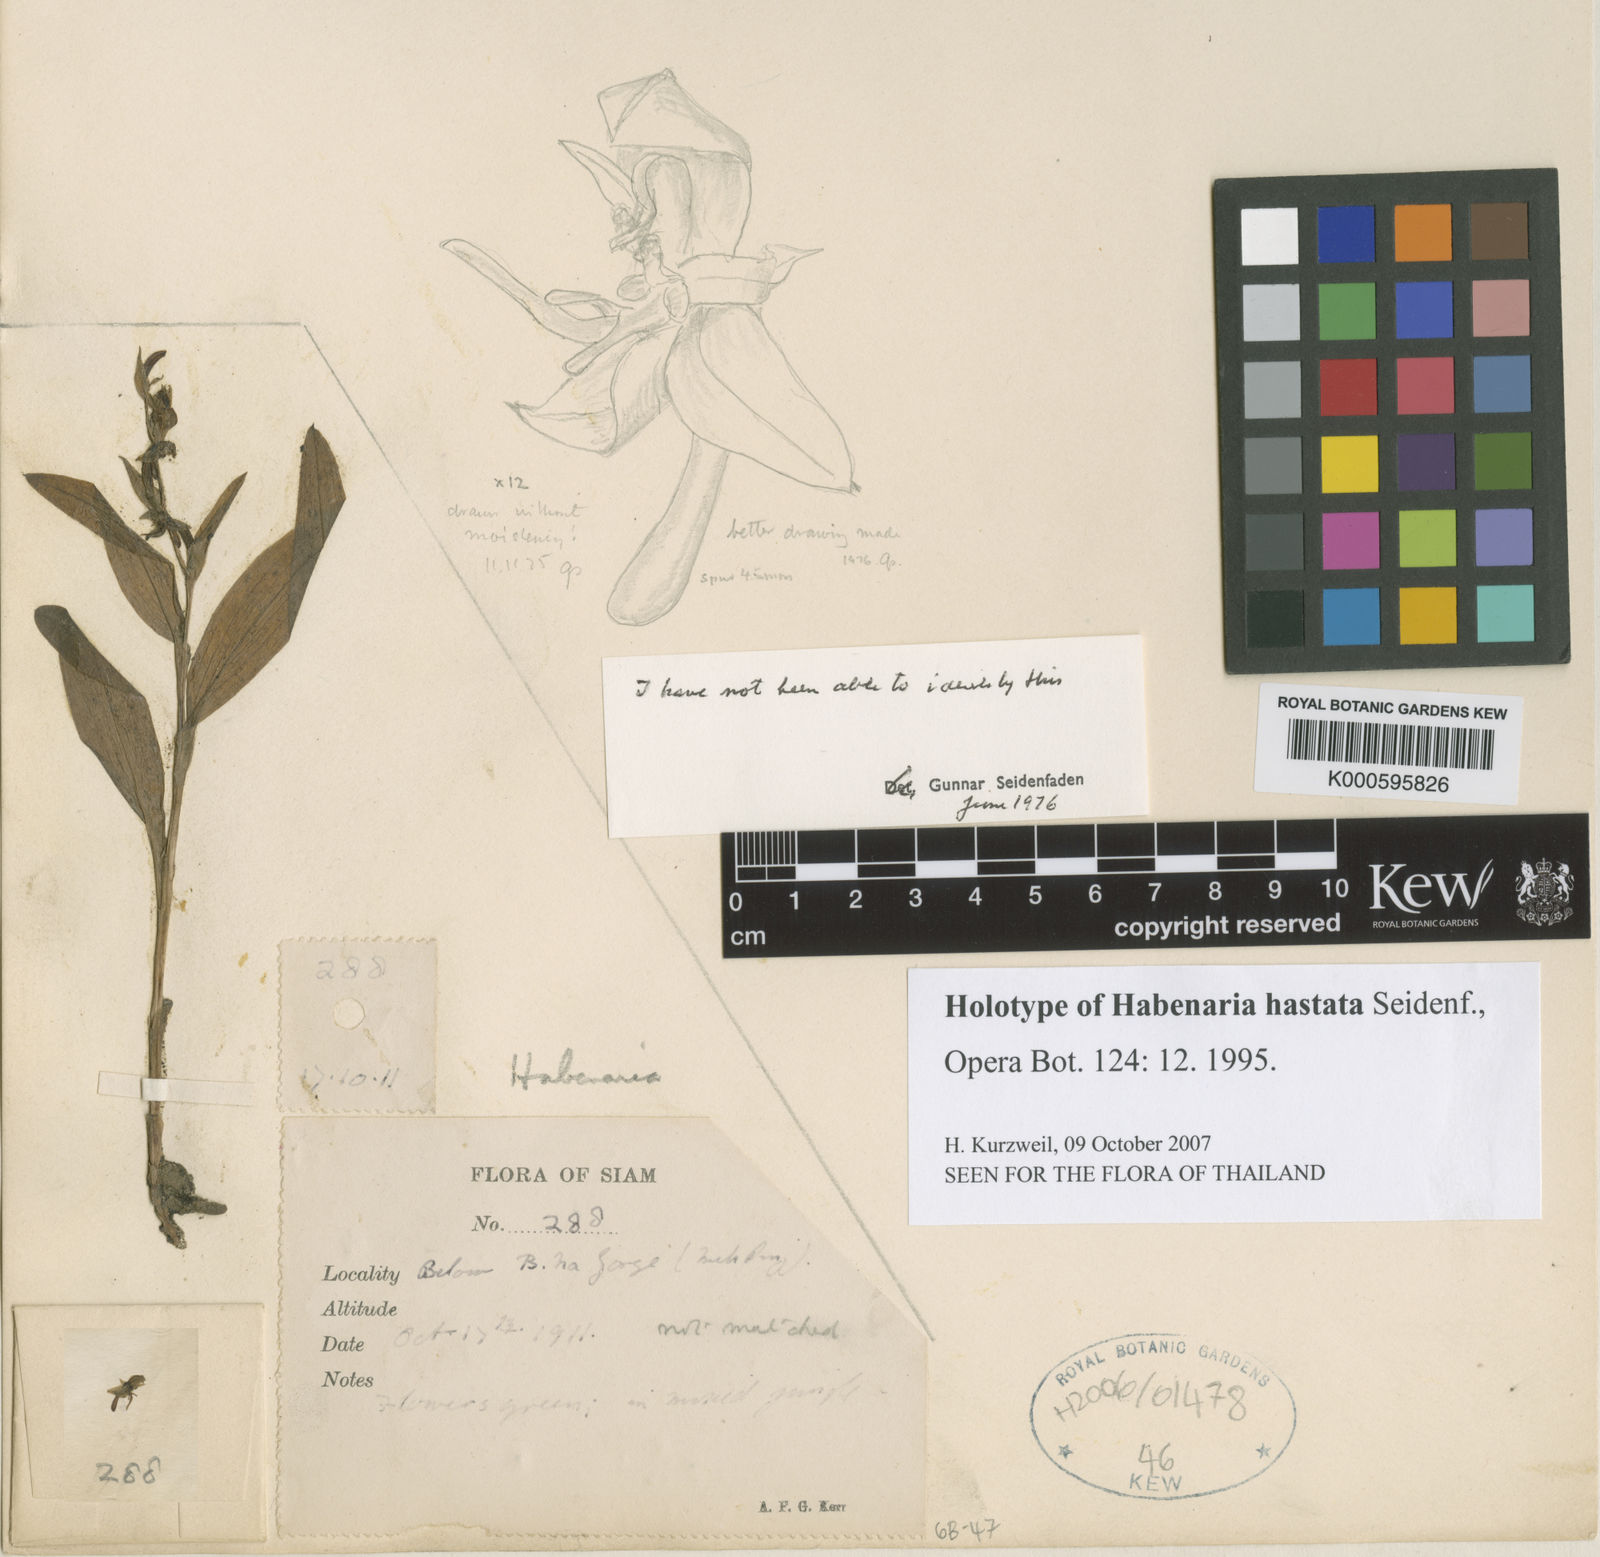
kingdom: Plantae
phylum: Tracheophyta
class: Liliopsida
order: Asparagales
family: Orchidaceae
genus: Habenaria
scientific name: Habenaria hastata
